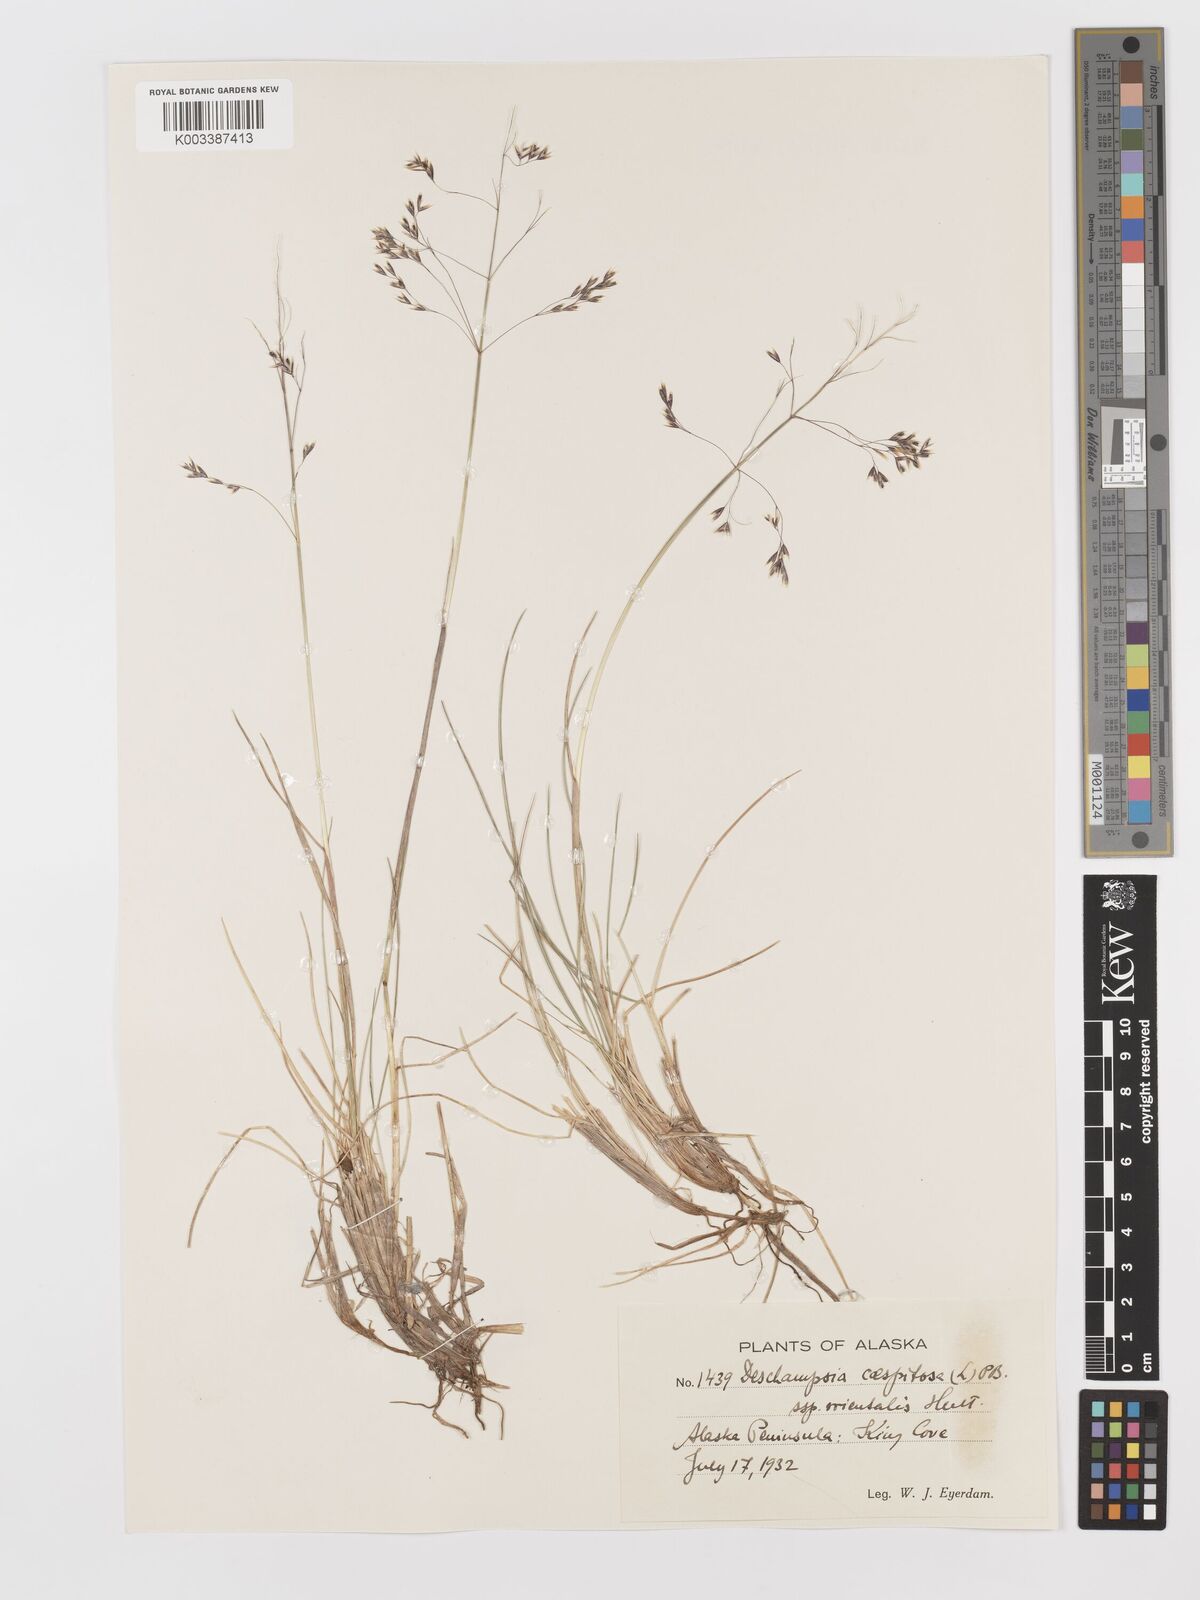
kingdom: Plantae
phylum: Tracheophyta
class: Liliopsida
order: Poales
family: Poaceae
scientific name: Poaceae
